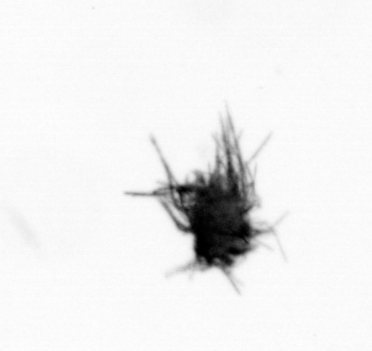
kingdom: Bacteria
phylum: Cyanobacteria
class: Cyanobacteriia
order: Cyanobacteriales
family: Microcoleaceae
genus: Trichodesmium
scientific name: Trichodesmium
